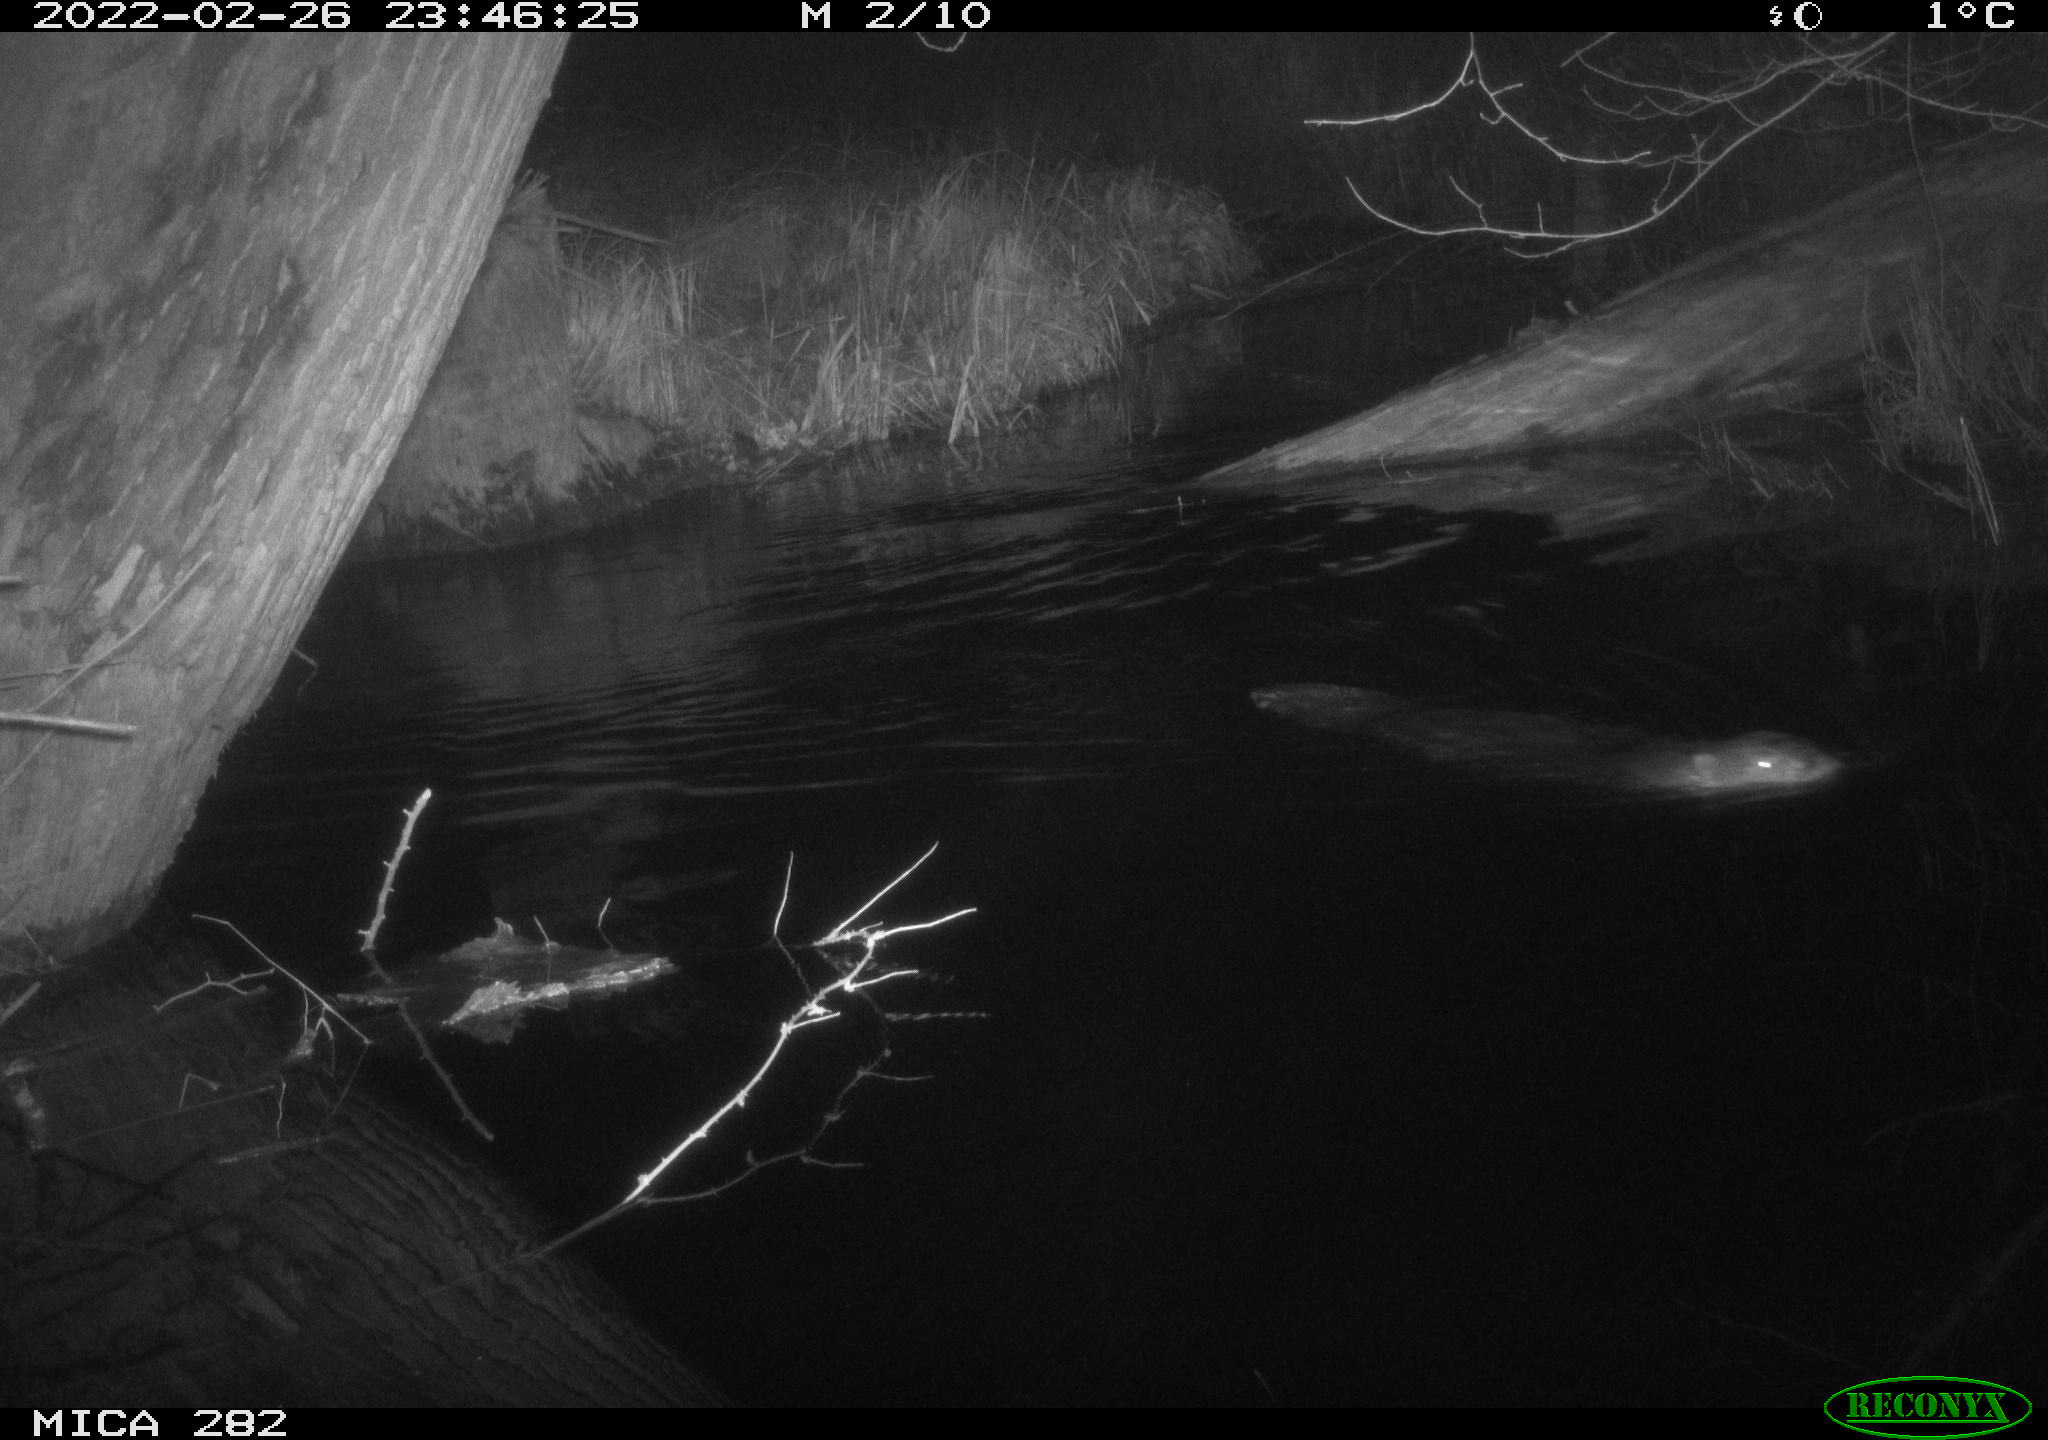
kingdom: Animalia
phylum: Chordata
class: Mammalia
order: Rodentia
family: Castoridae
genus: Castor
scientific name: Castor fiber
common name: Eurasian beaver
